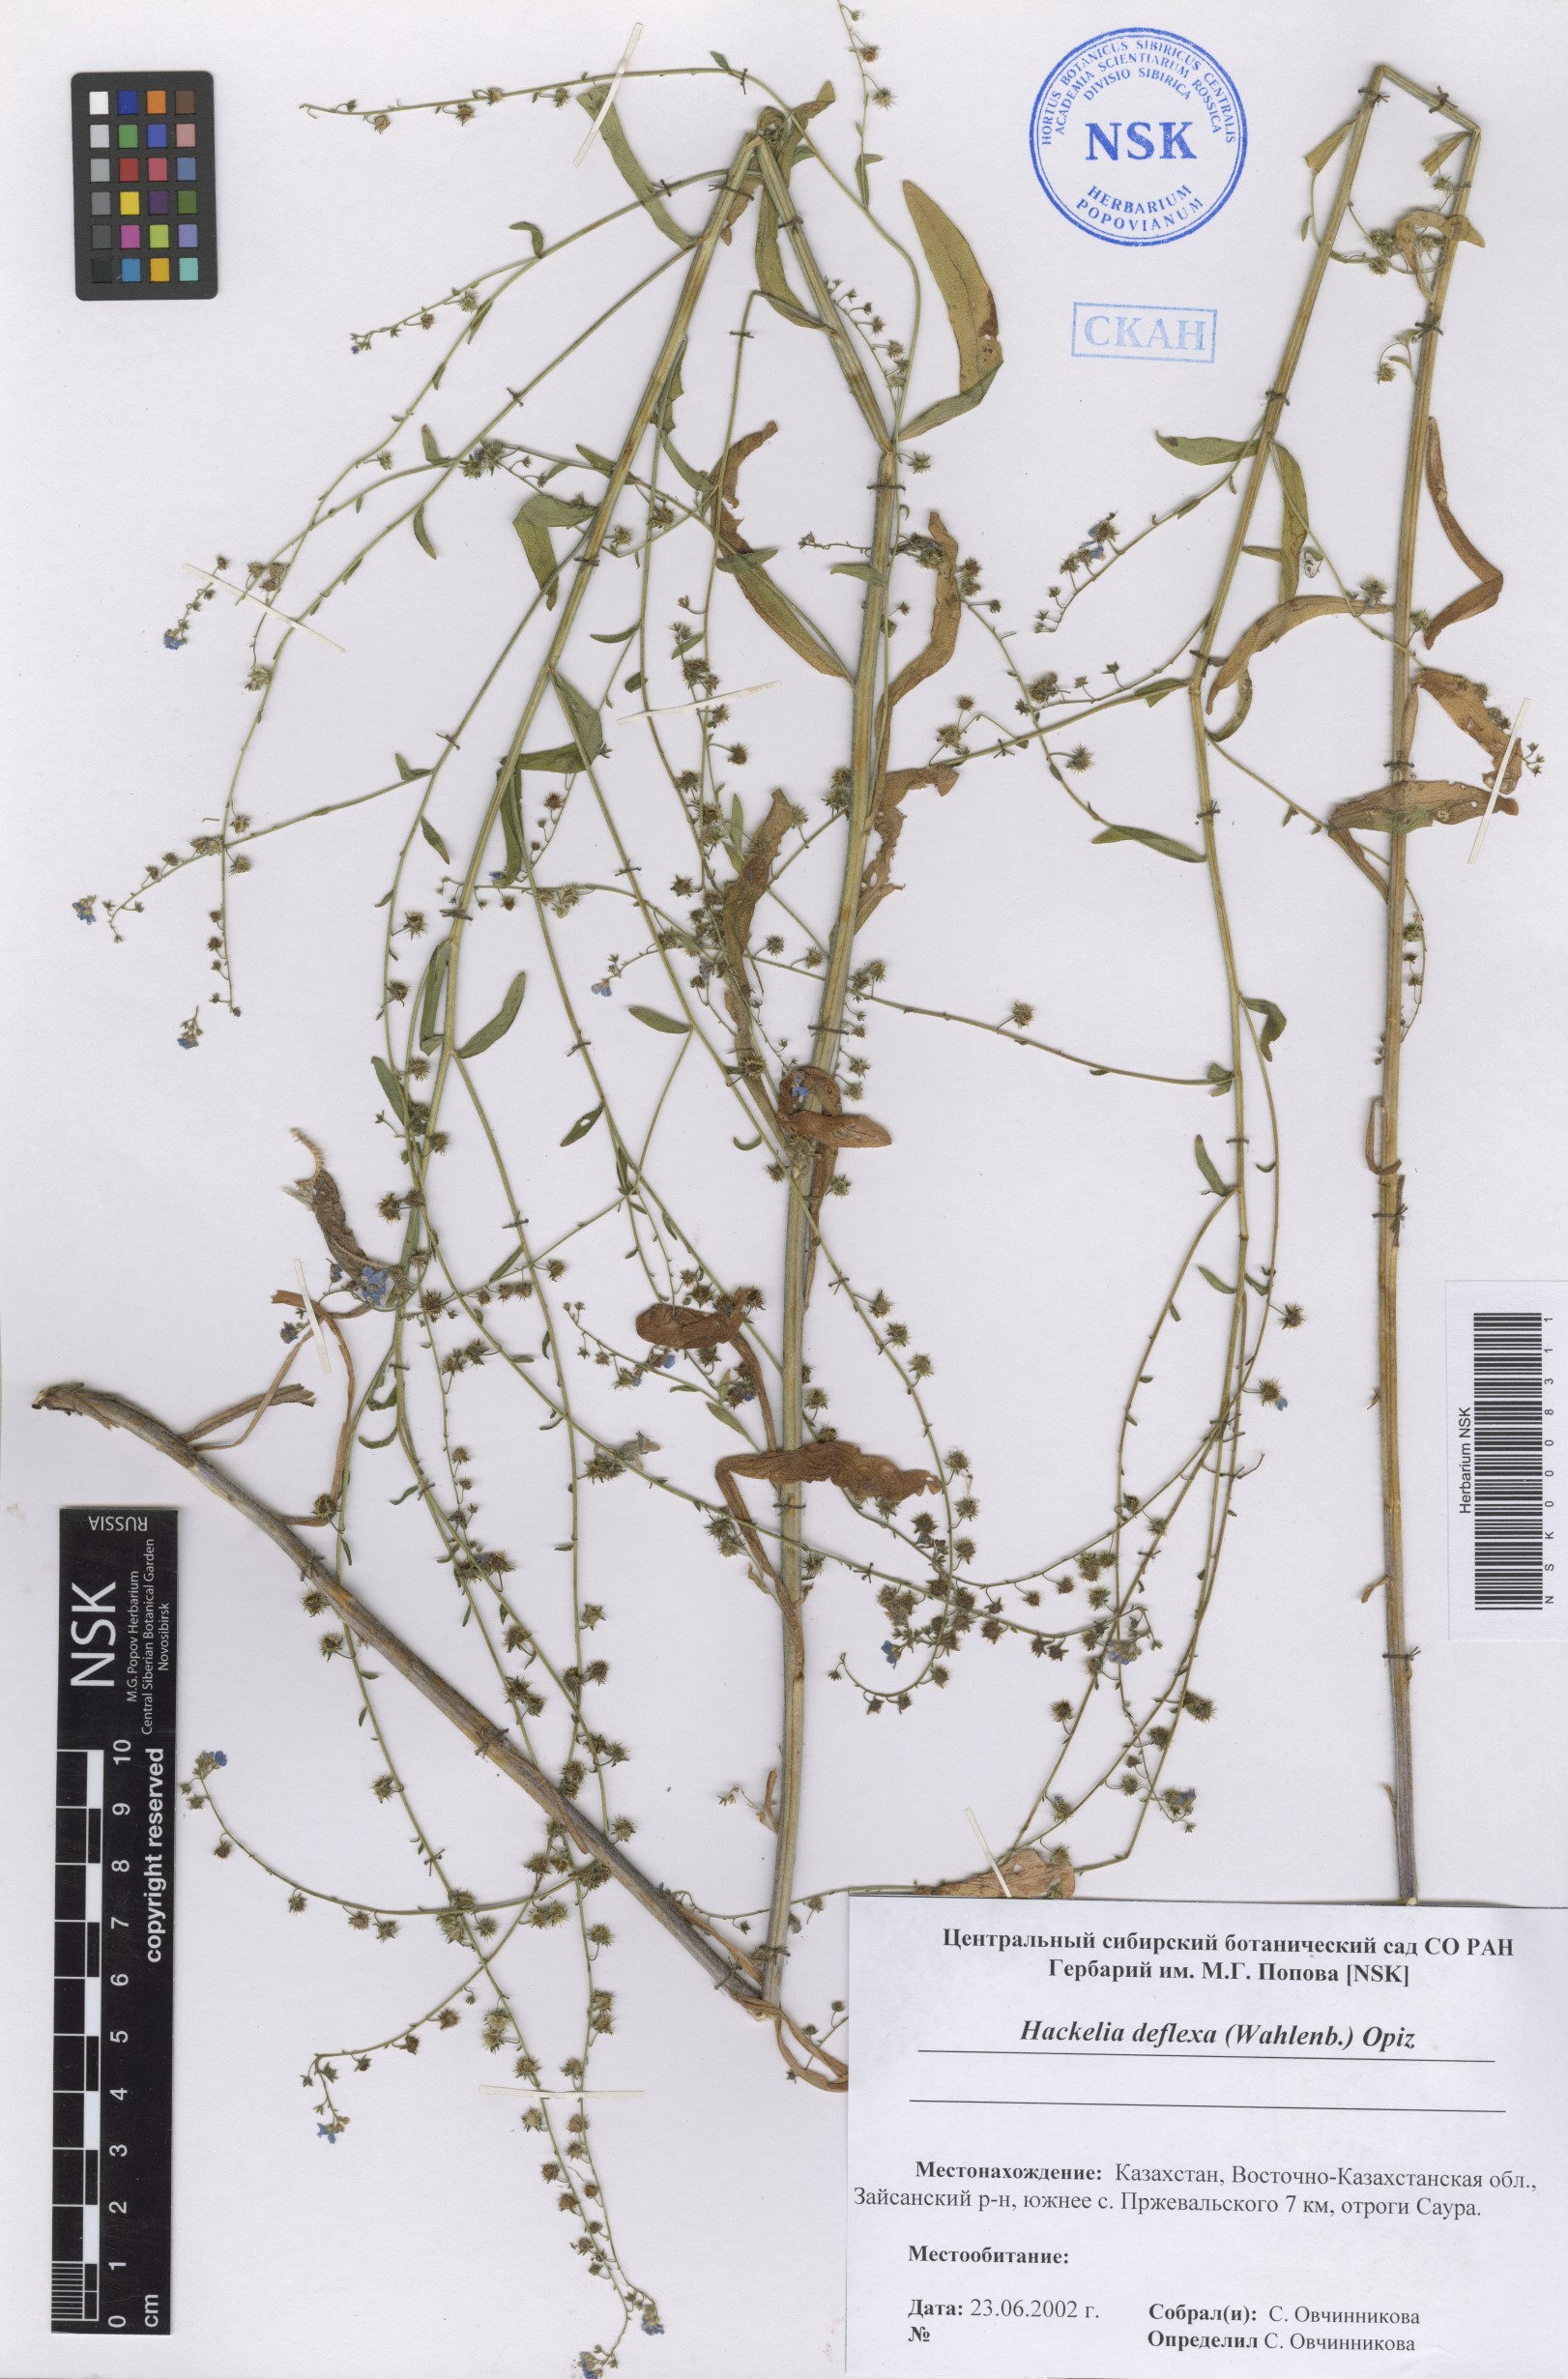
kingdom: Plantae
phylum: Tracheophyta
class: Magnoliopsida
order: Boraginales
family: Boraginaceae
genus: Hackelia
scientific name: Hackelia deflexa
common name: Nodding stickseed
